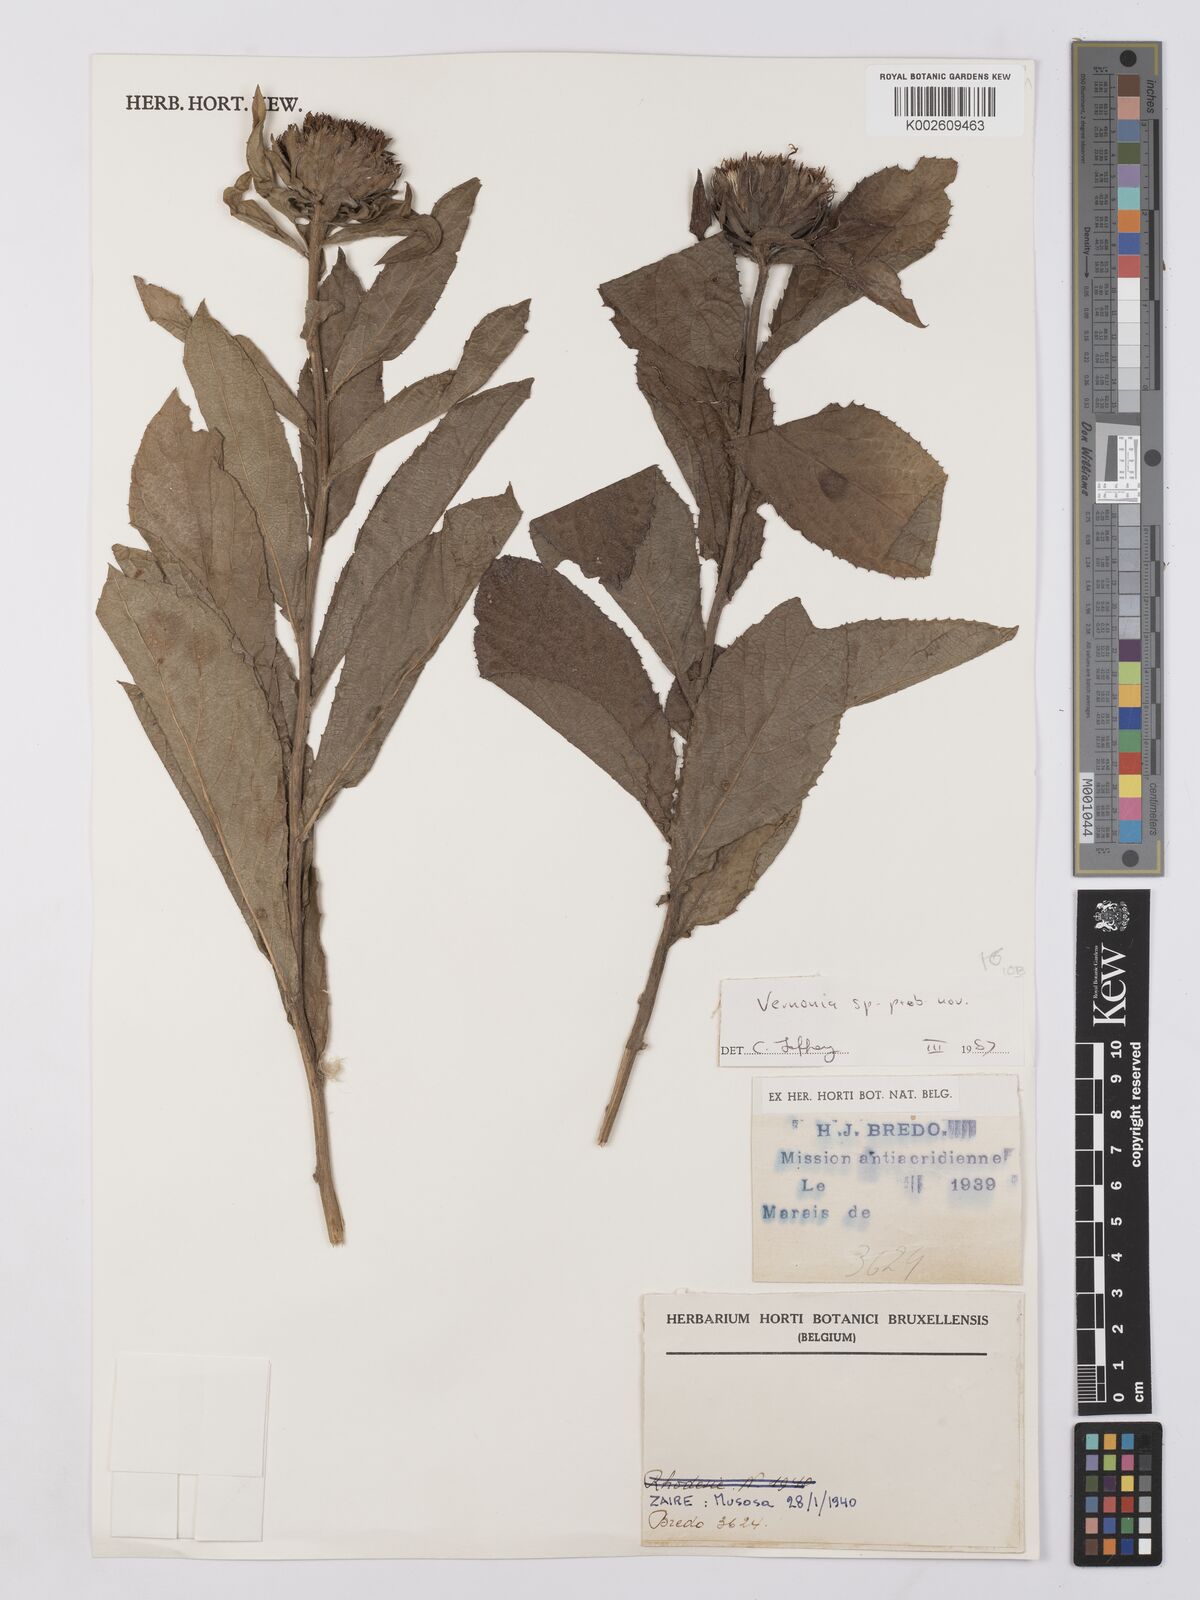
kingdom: Plantae
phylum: Tracheophyta
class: Magnoliopsida
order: Asterales
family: Asteraceae
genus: Vernonia
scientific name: Vernonia
